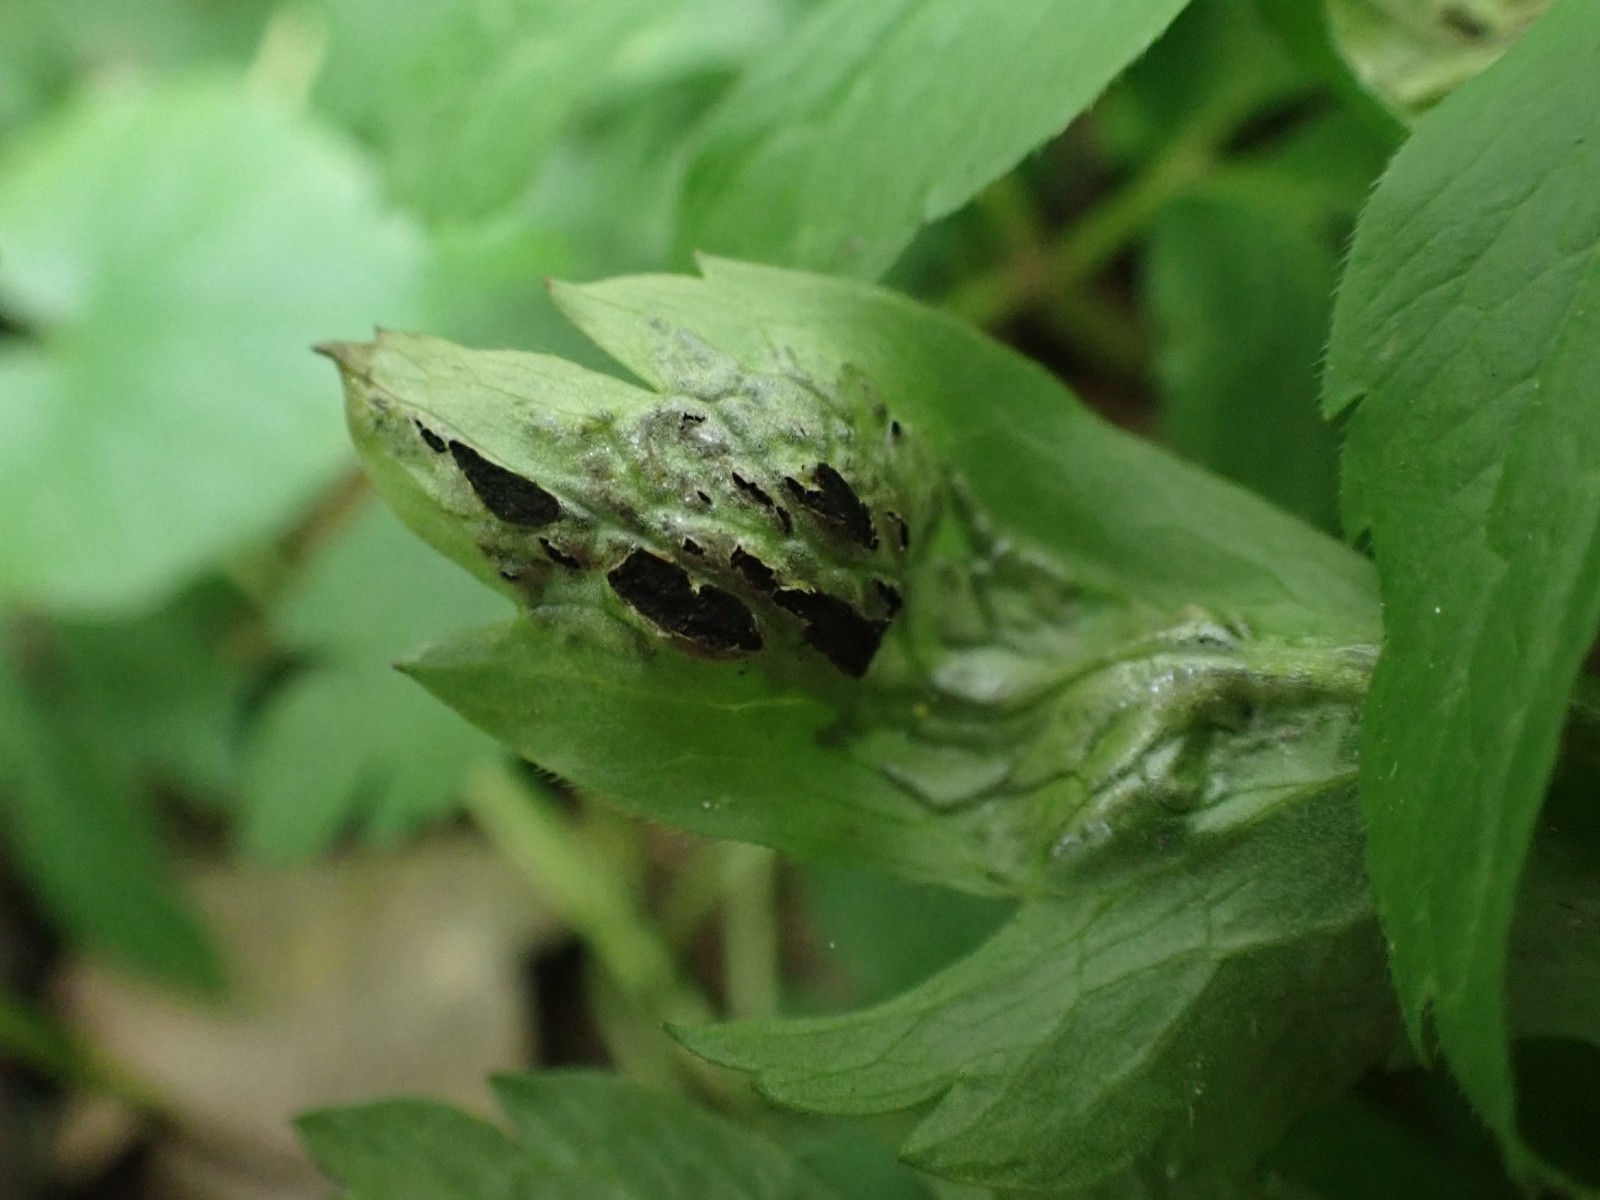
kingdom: Fungi
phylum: Basidiomycota
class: Ustilaginomycetes
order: Urocystidales
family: Urocystidaceae
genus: Urocystis
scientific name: Urocystis anemones
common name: anemone-brand
